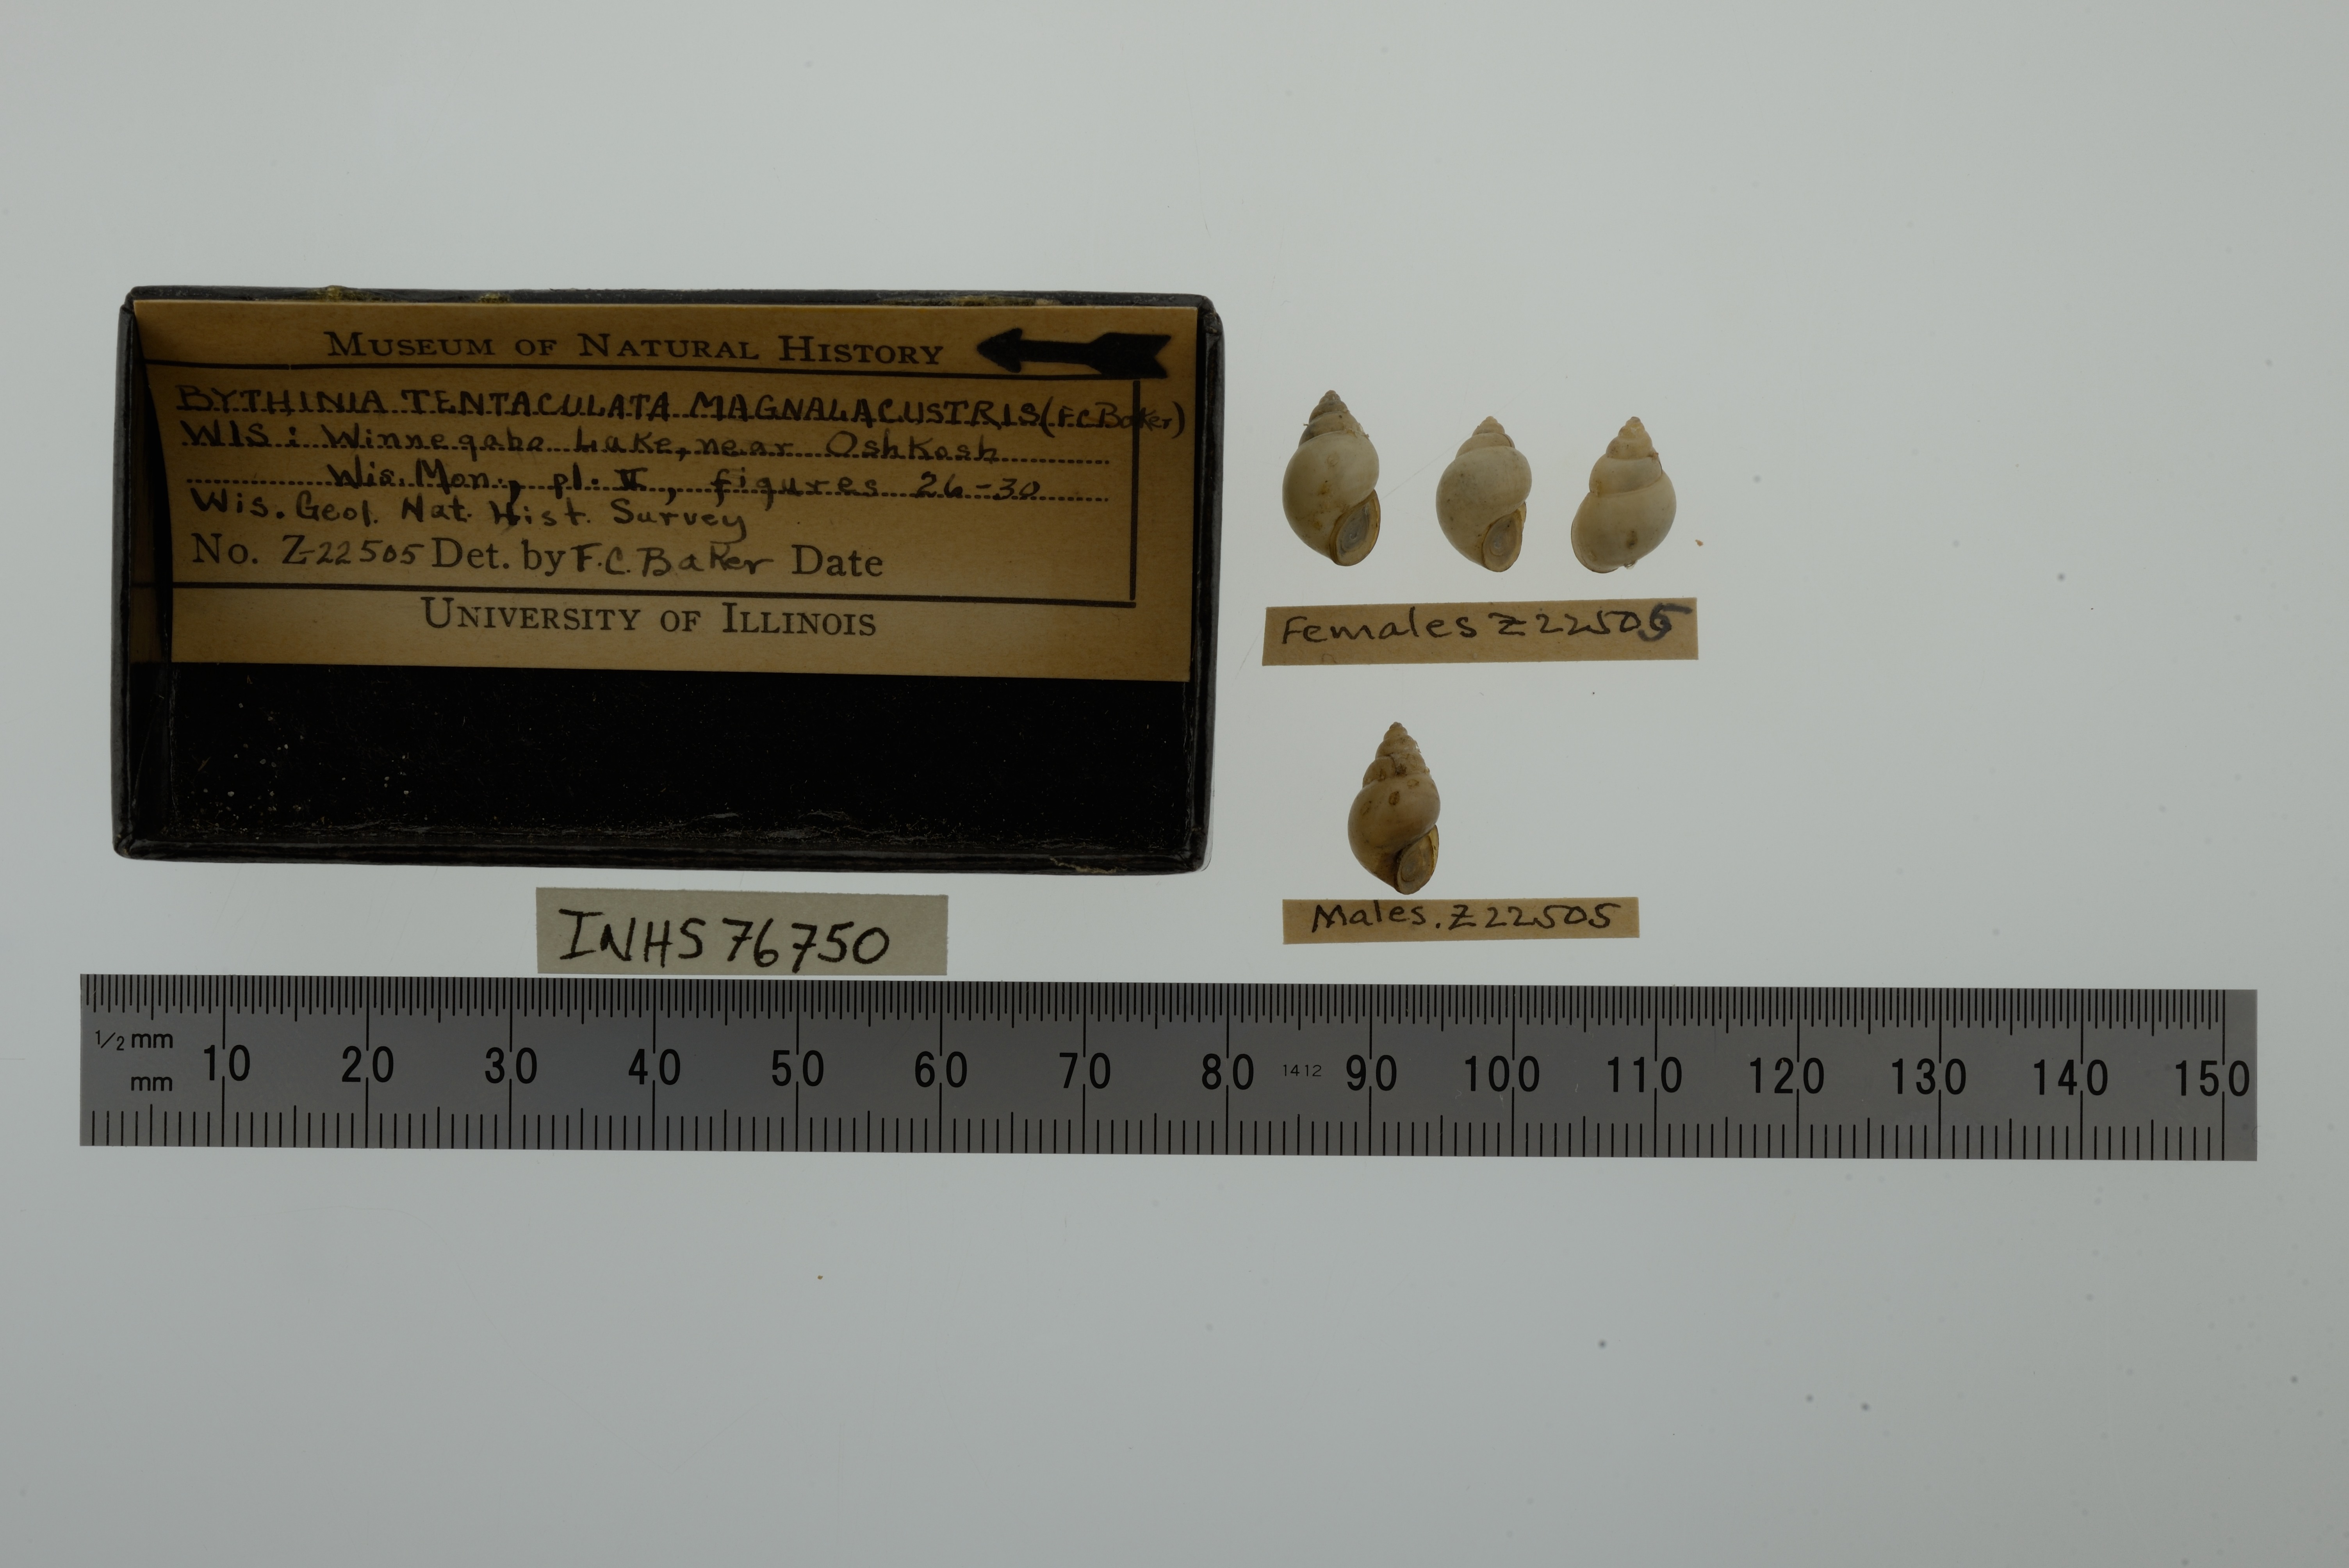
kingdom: Animalia
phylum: Mollusca
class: Gastropoda
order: Littorinimorpha
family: Bithyniidae
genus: Bithynia
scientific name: Bithynia tentaculata
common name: Common bithynia
